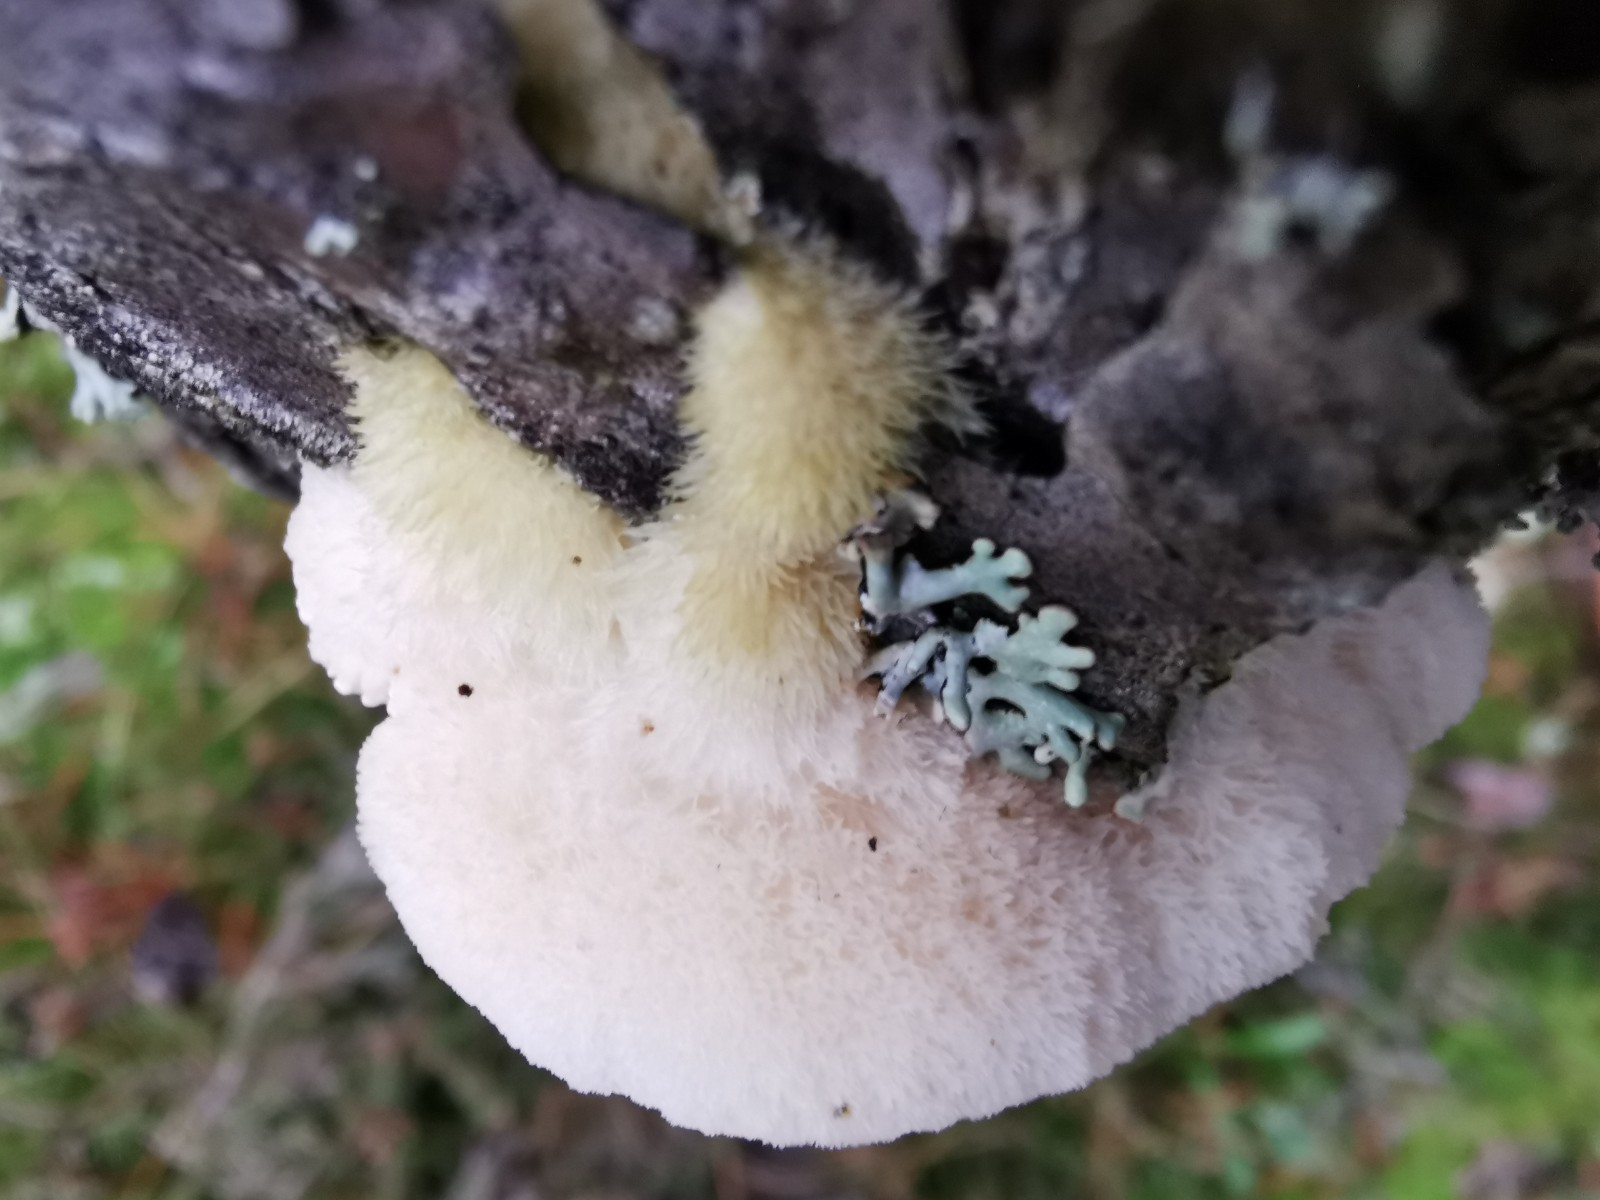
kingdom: Fungi
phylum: Basidiomycota
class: Agaricomycetes
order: Polyporales
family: Polyporaceae
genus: Diplomitoporus
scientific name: Diplomitoporus flavescens
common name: fyrre-elastikporesvamp
